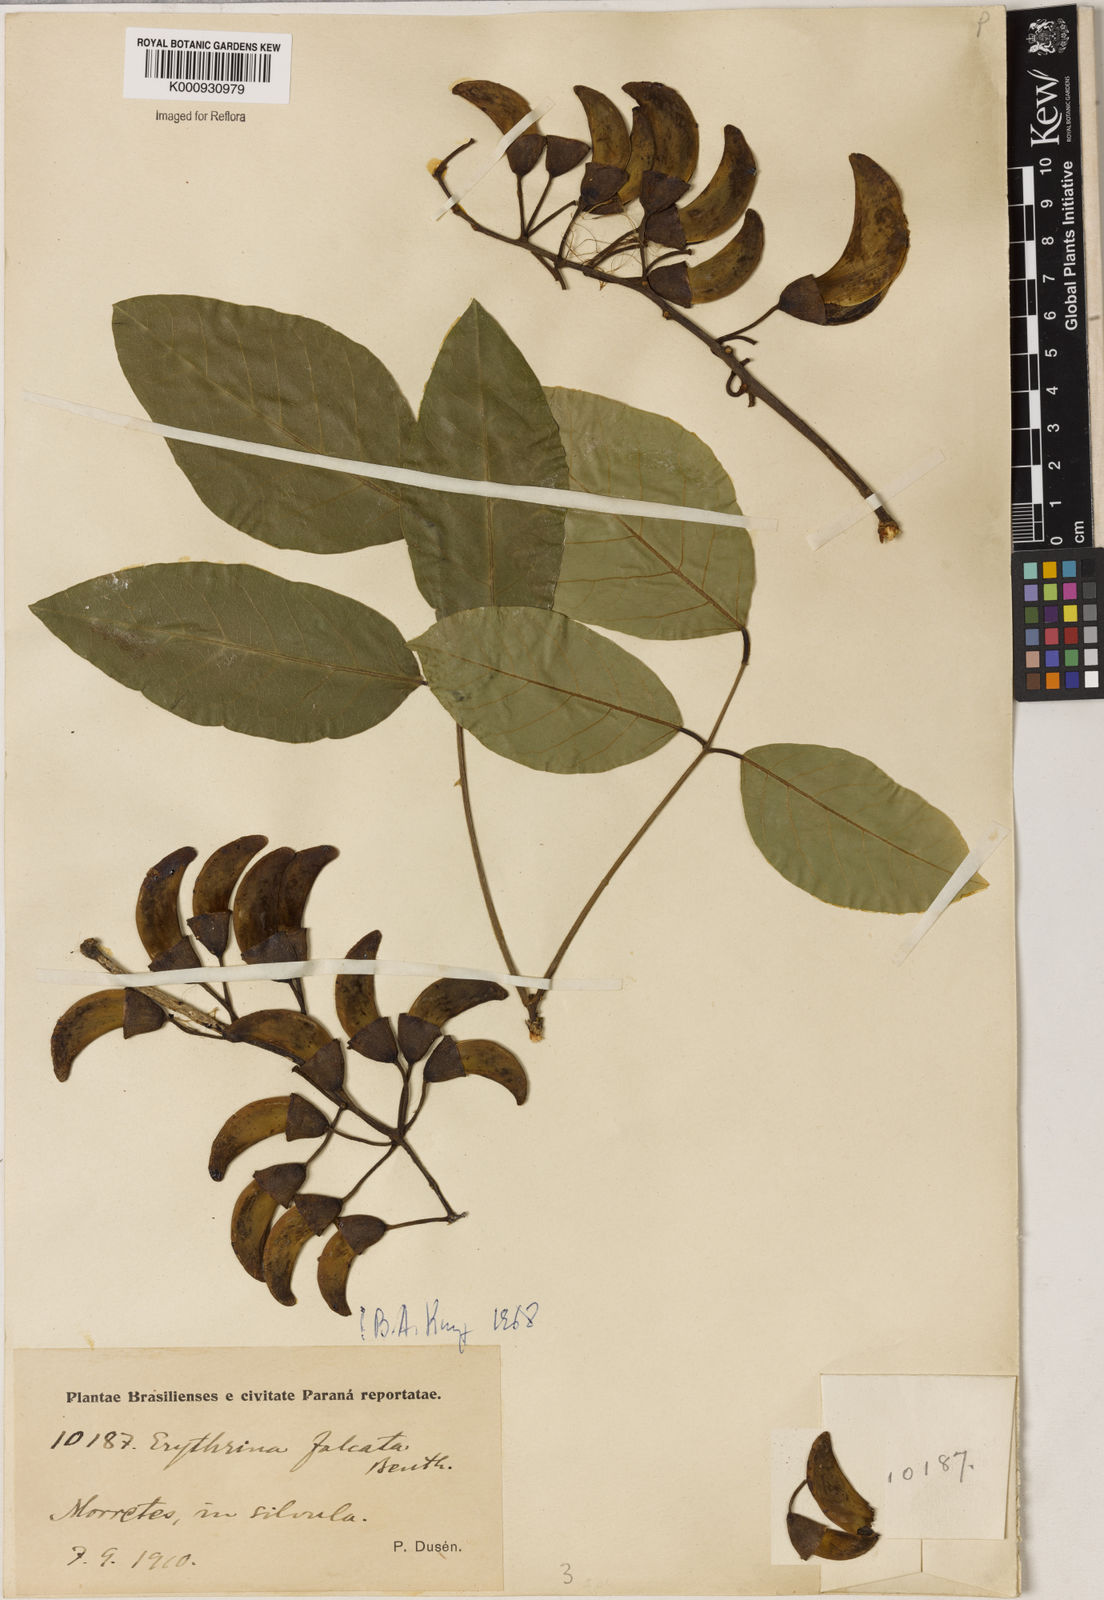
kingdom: Plantae
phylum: Tracheophyta
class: Magnoliopsida
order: Fabales
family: Fabaceae
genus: Erythrina
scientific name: Erythrina falcata
